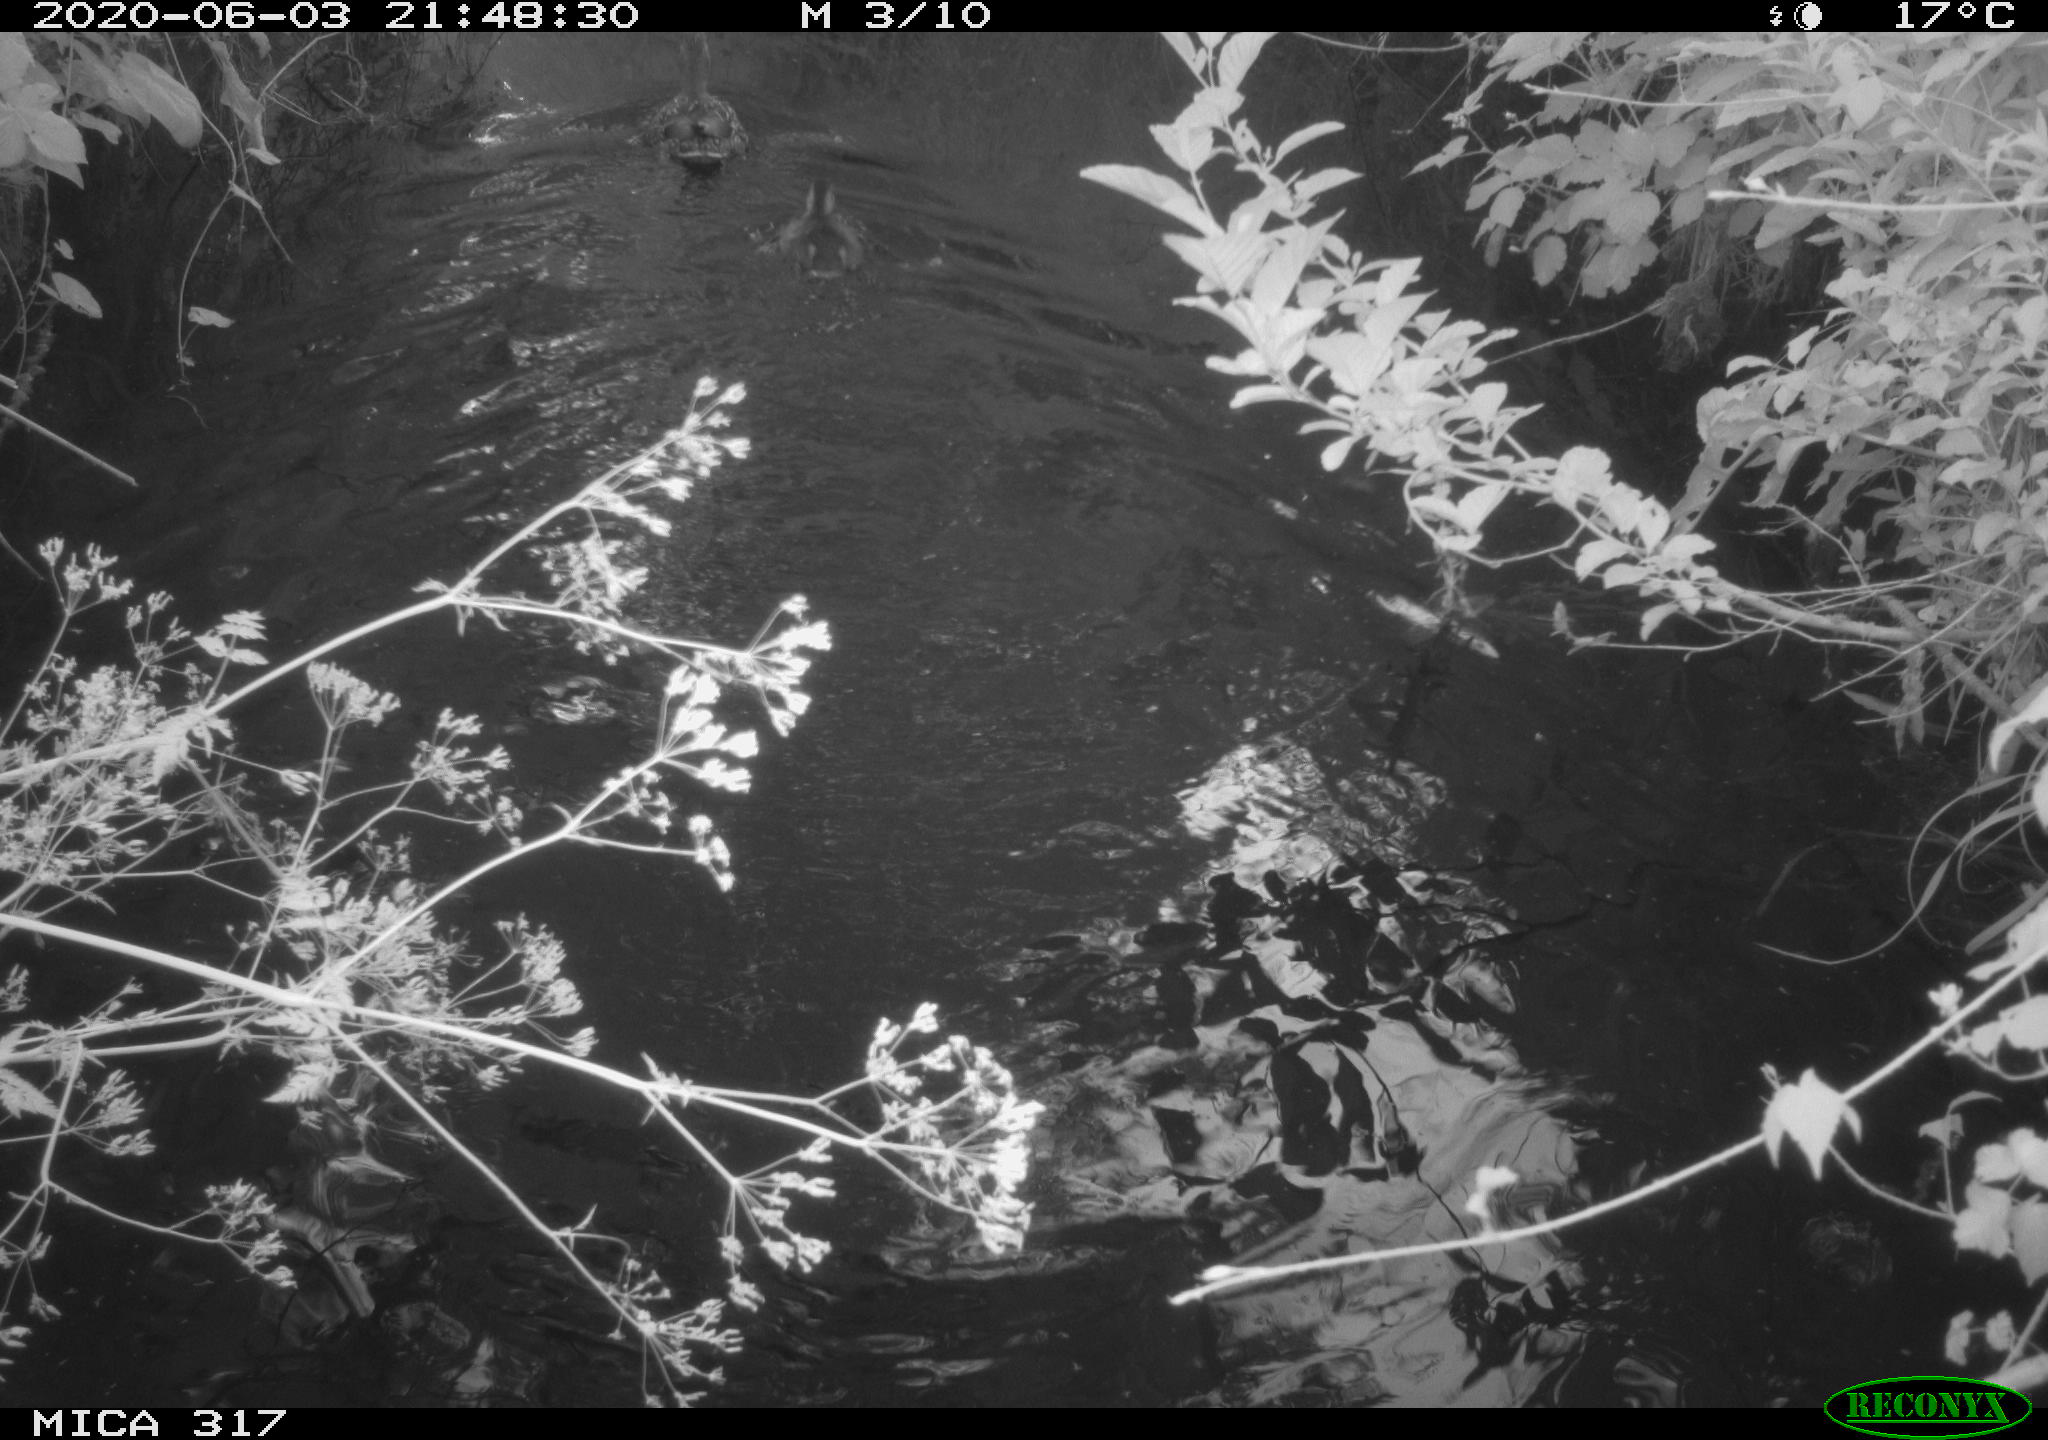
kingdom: Animalia
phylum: Chordata
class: Aves
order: Anseriformes
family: Anatidae
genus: Anas
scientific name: Anas platyrhynchos
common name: Mallard
